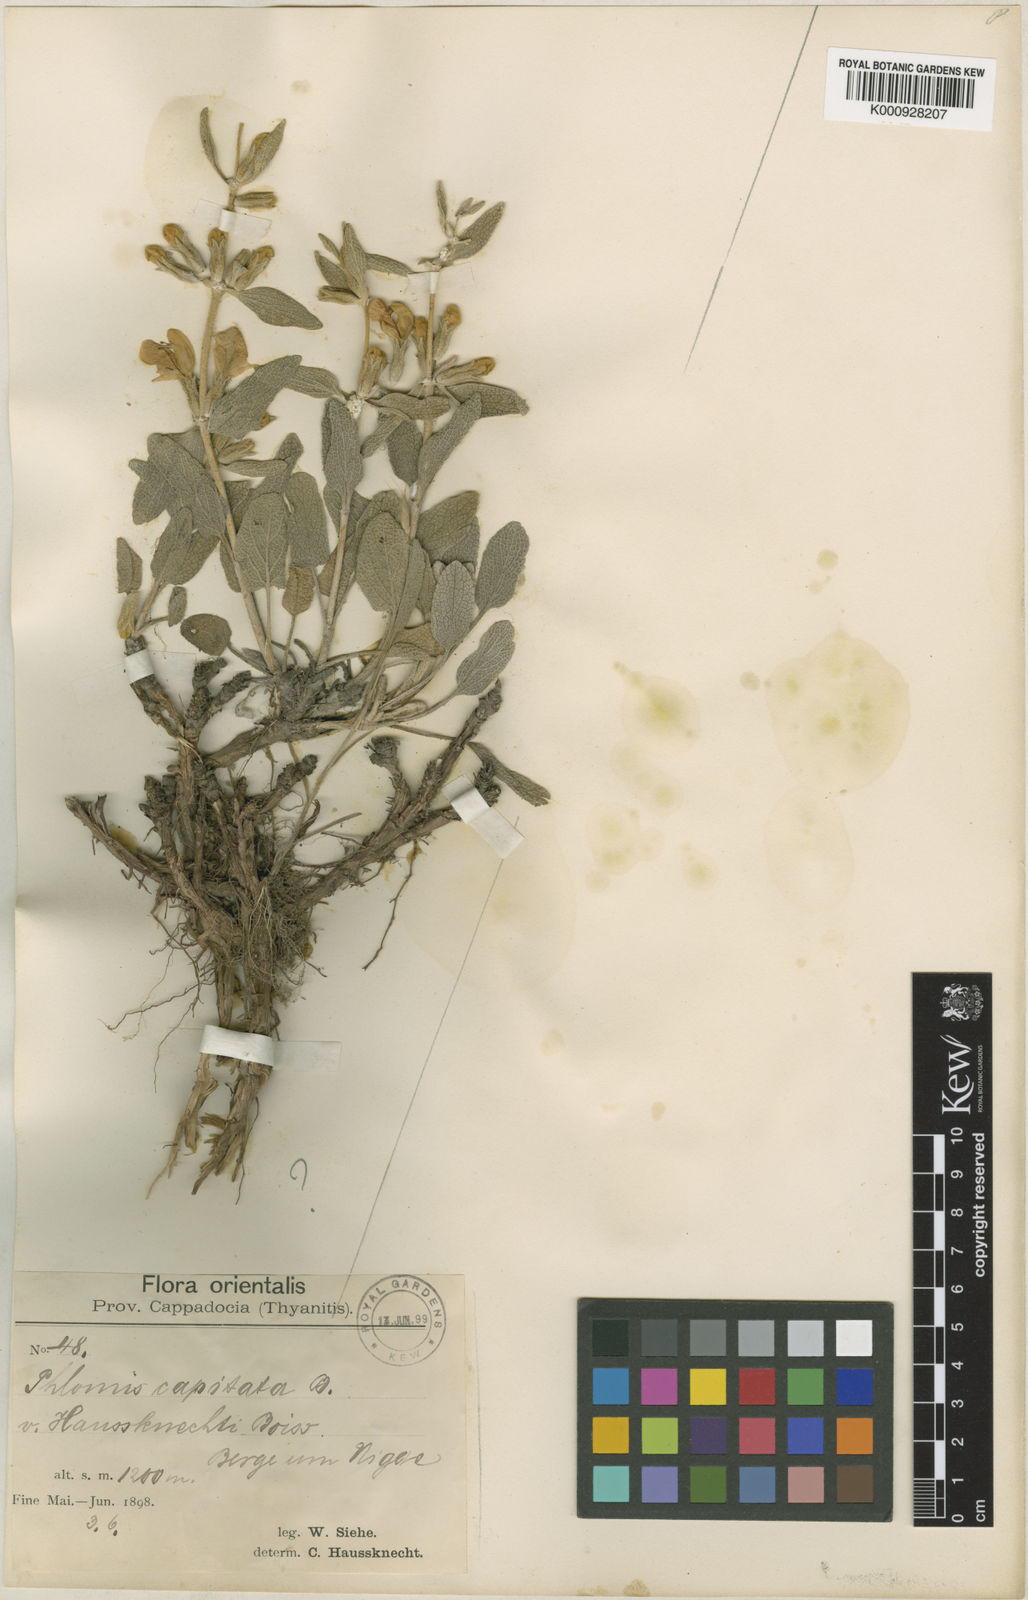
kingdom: Plantae
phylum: Tracheophyta
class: Magnoliopsida
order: Lamiales
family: Lamiaceae
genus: Phlomis
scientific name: Phlomis
